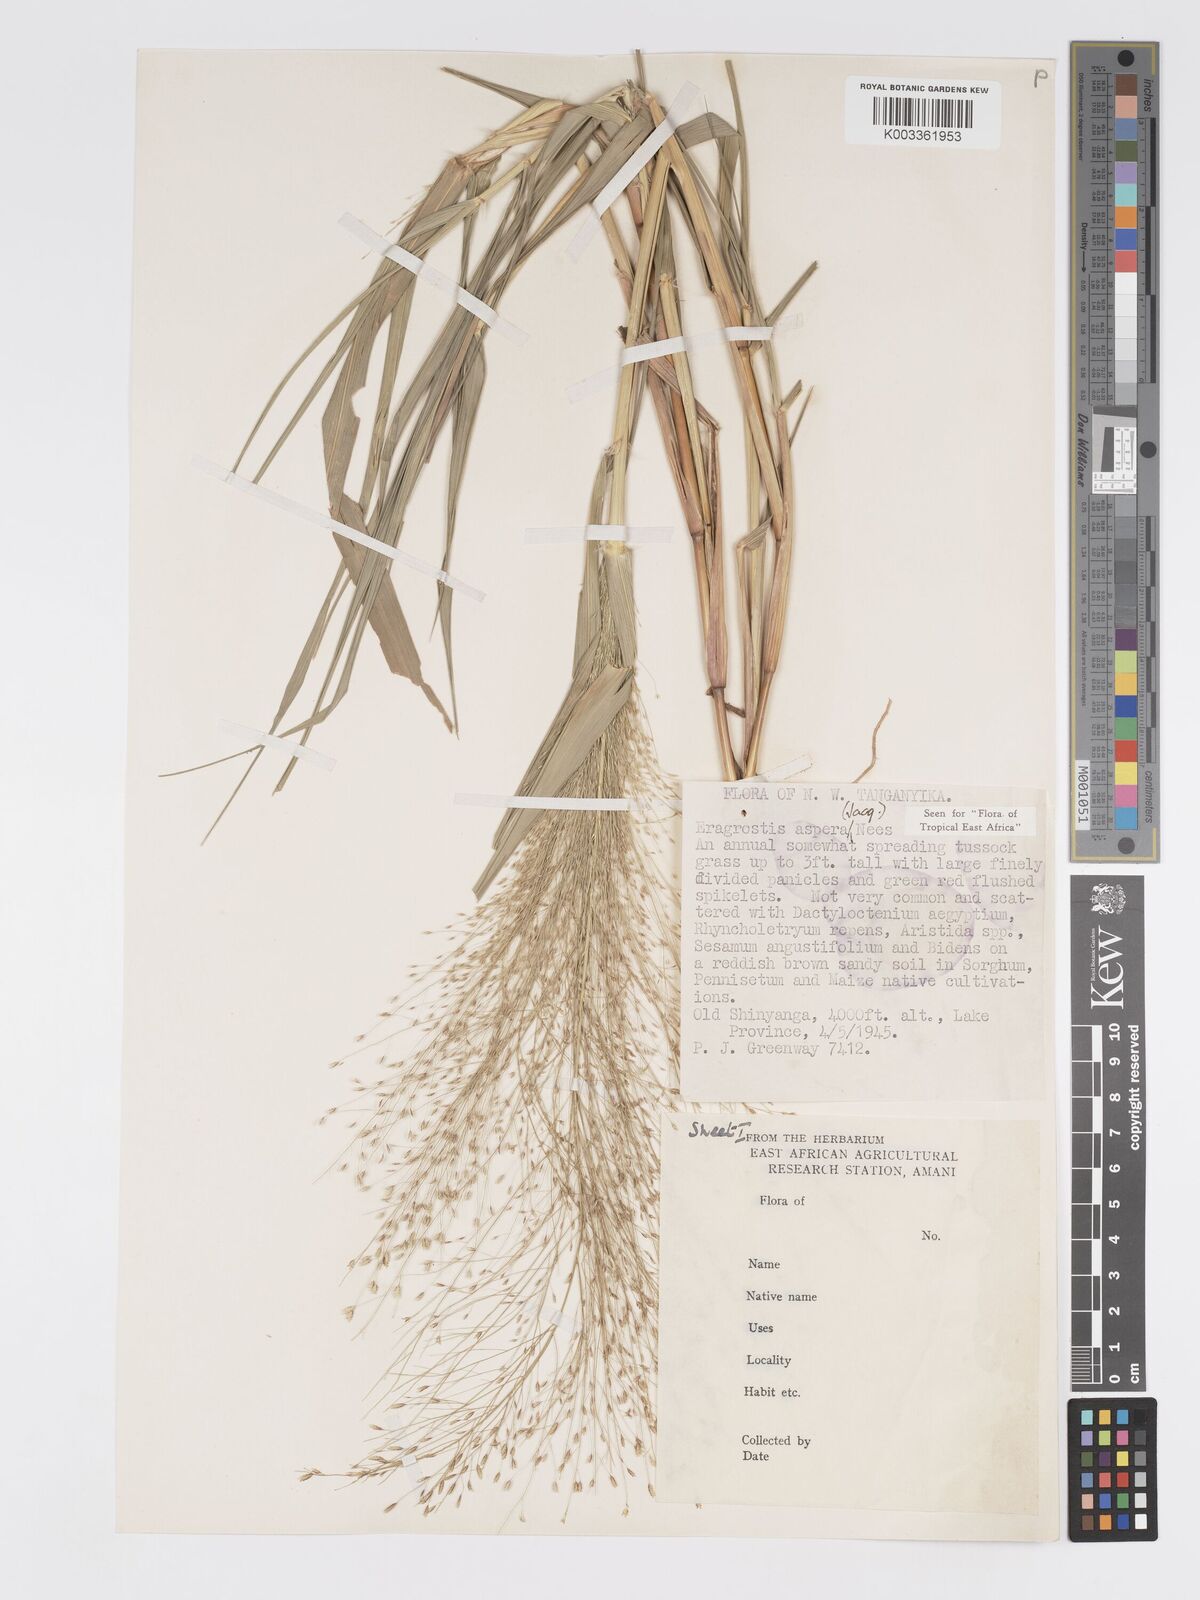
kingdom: Plantae
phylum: Tracheophyta
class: Liliopsida
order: Poales
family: Poaceae
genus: Eragrostis
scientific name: Eragrostis aspera
